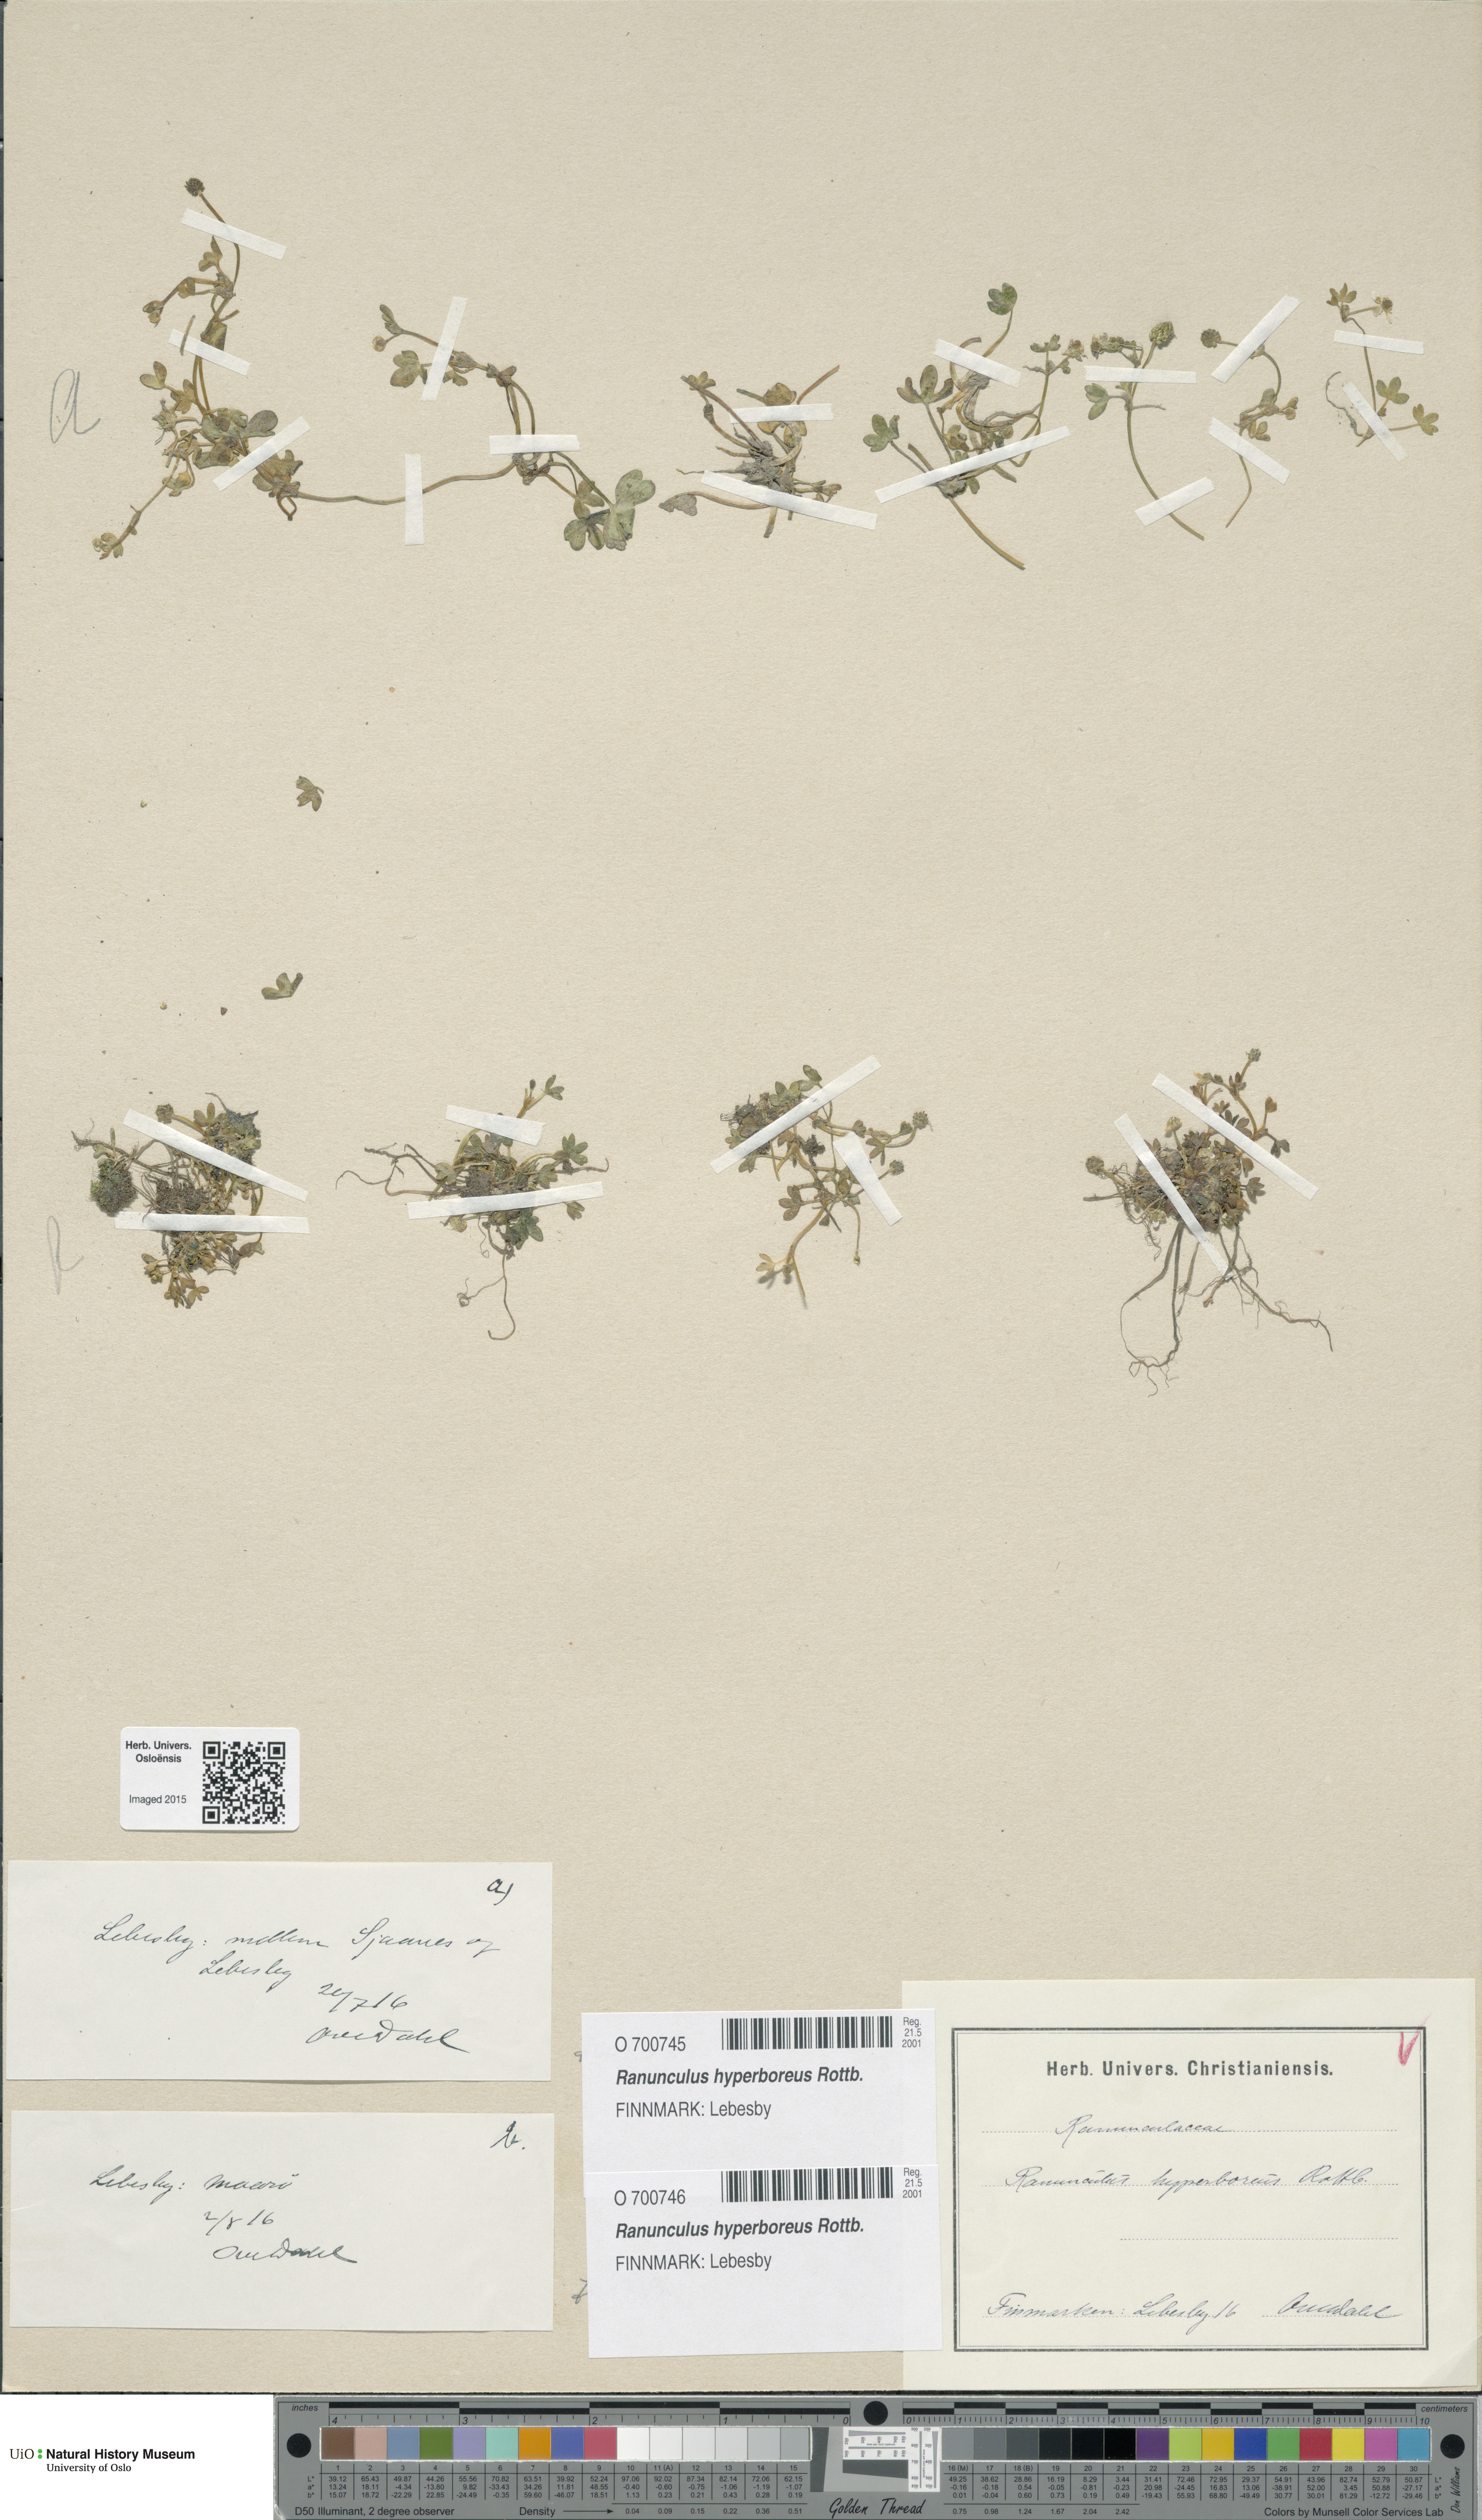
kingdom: Plantae
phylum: Tracheophyta
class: Magnoliopsida
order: Ranunculales
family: Ranunculaceae
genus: Ranunculus
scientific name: Ranunculus hyperboreus
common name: Arctic buttercup
